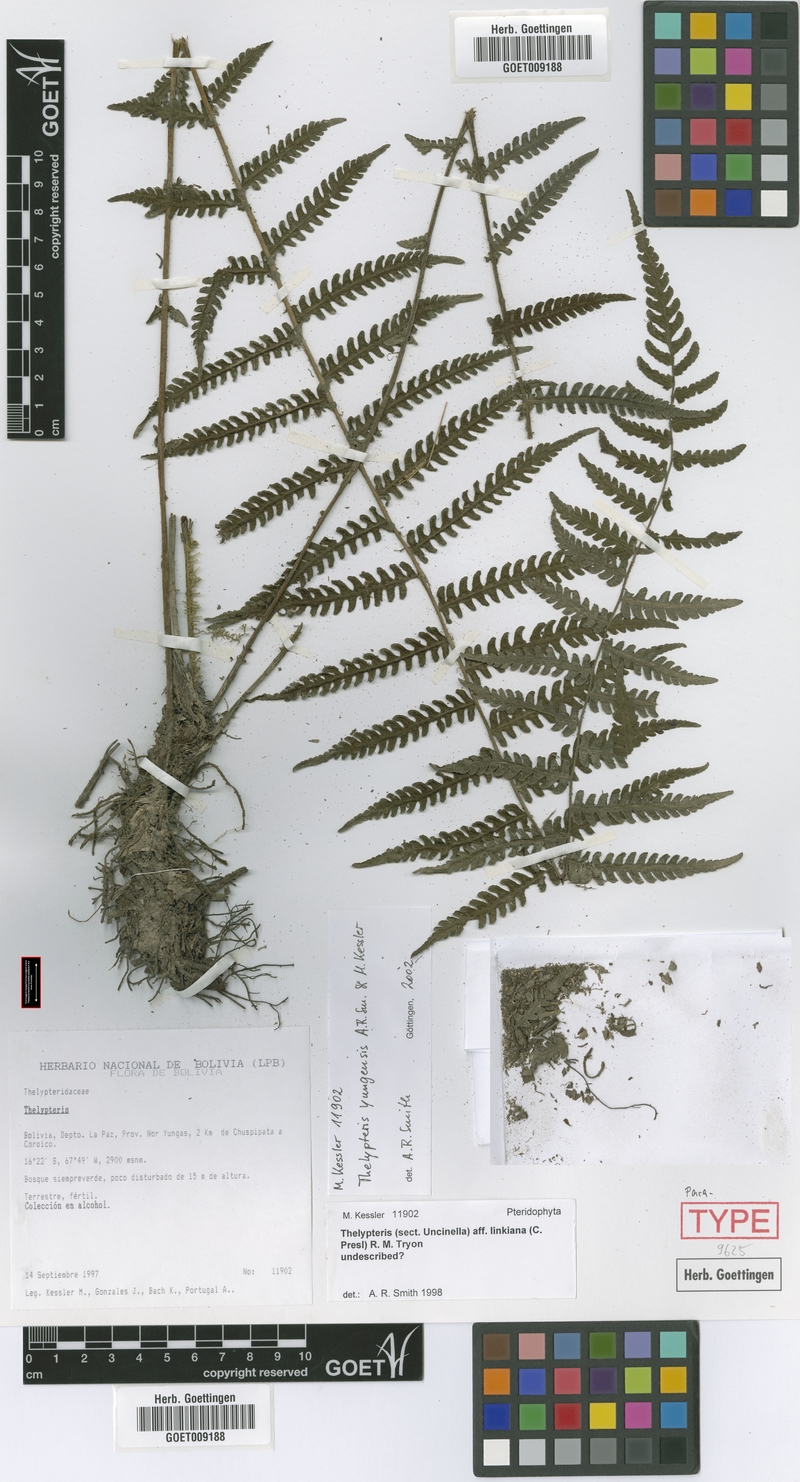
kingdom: Plantae
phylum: Tracheophyta
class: Polypodiopsida
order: Polypodiales
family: Thelypteridaceae
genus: Amauropelta
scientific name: Amauropelta yungensis
